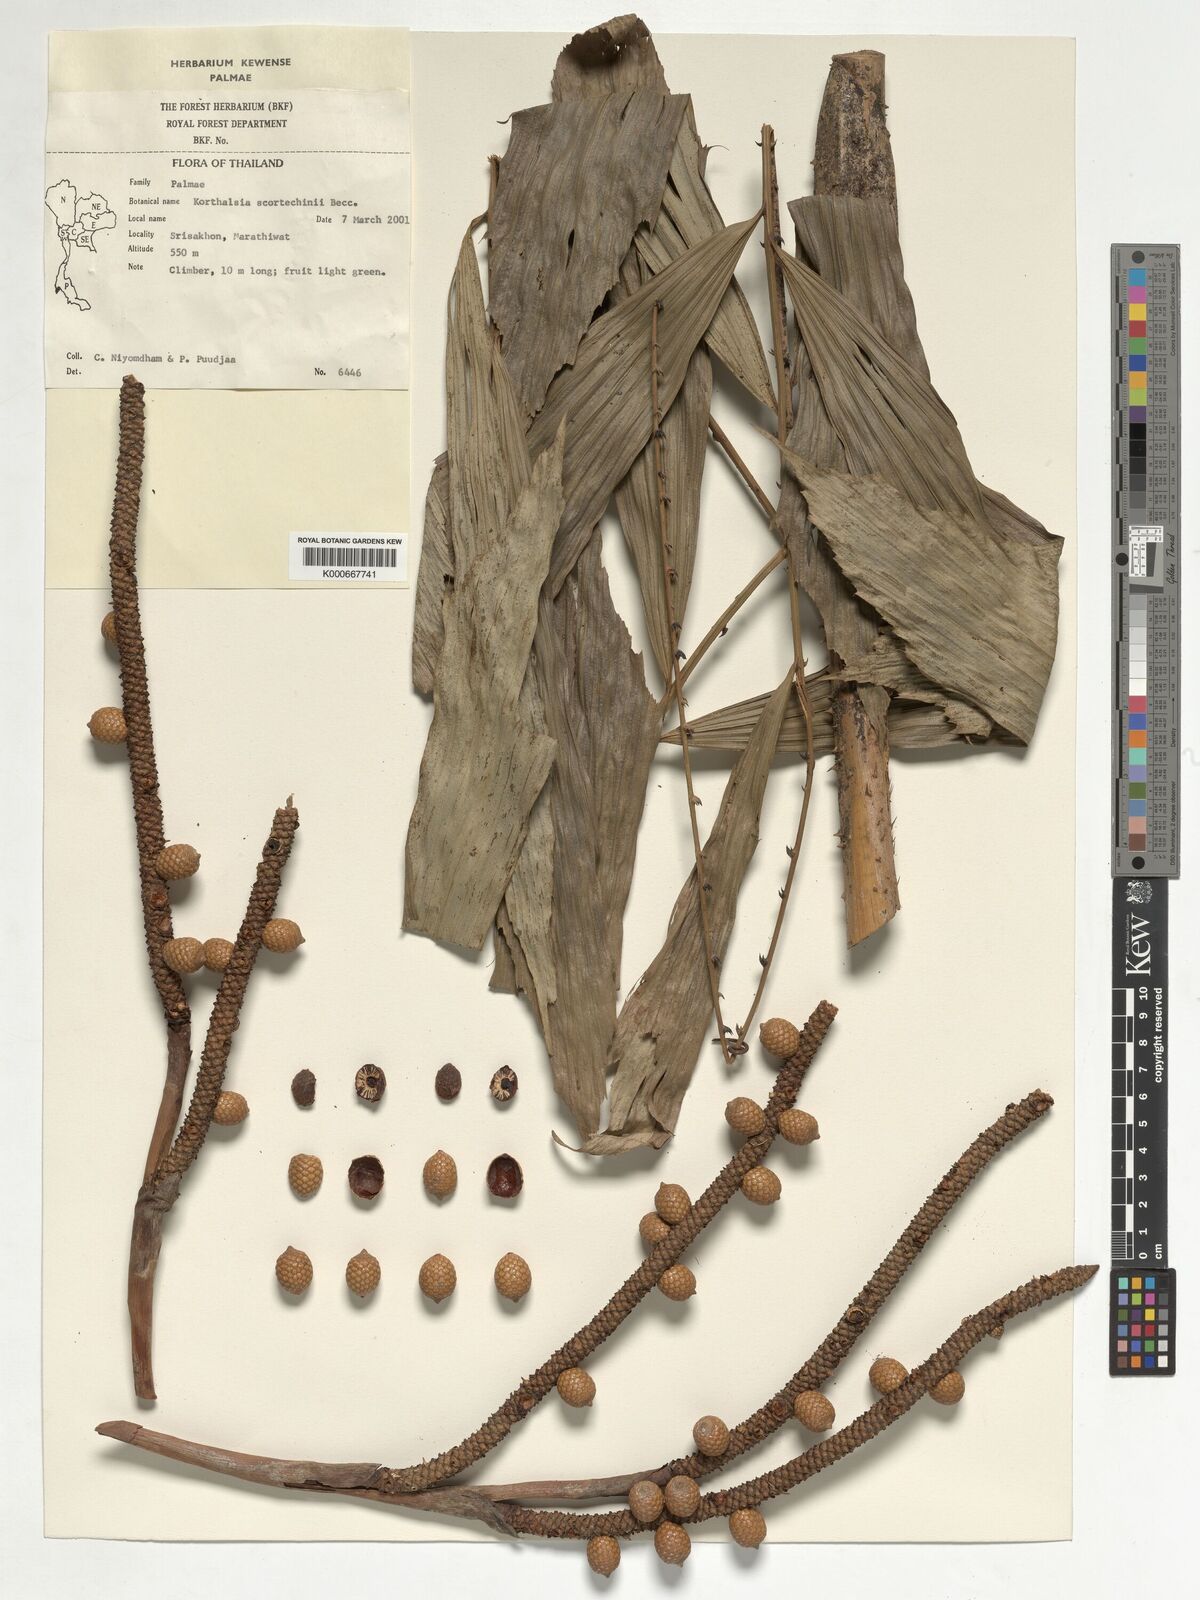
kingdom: Plantae
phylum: Tracheophyta
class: Liliopsida
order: Arecales
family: Arecaceae
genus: Korthalsia
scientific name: Korthalsia scortechinii
